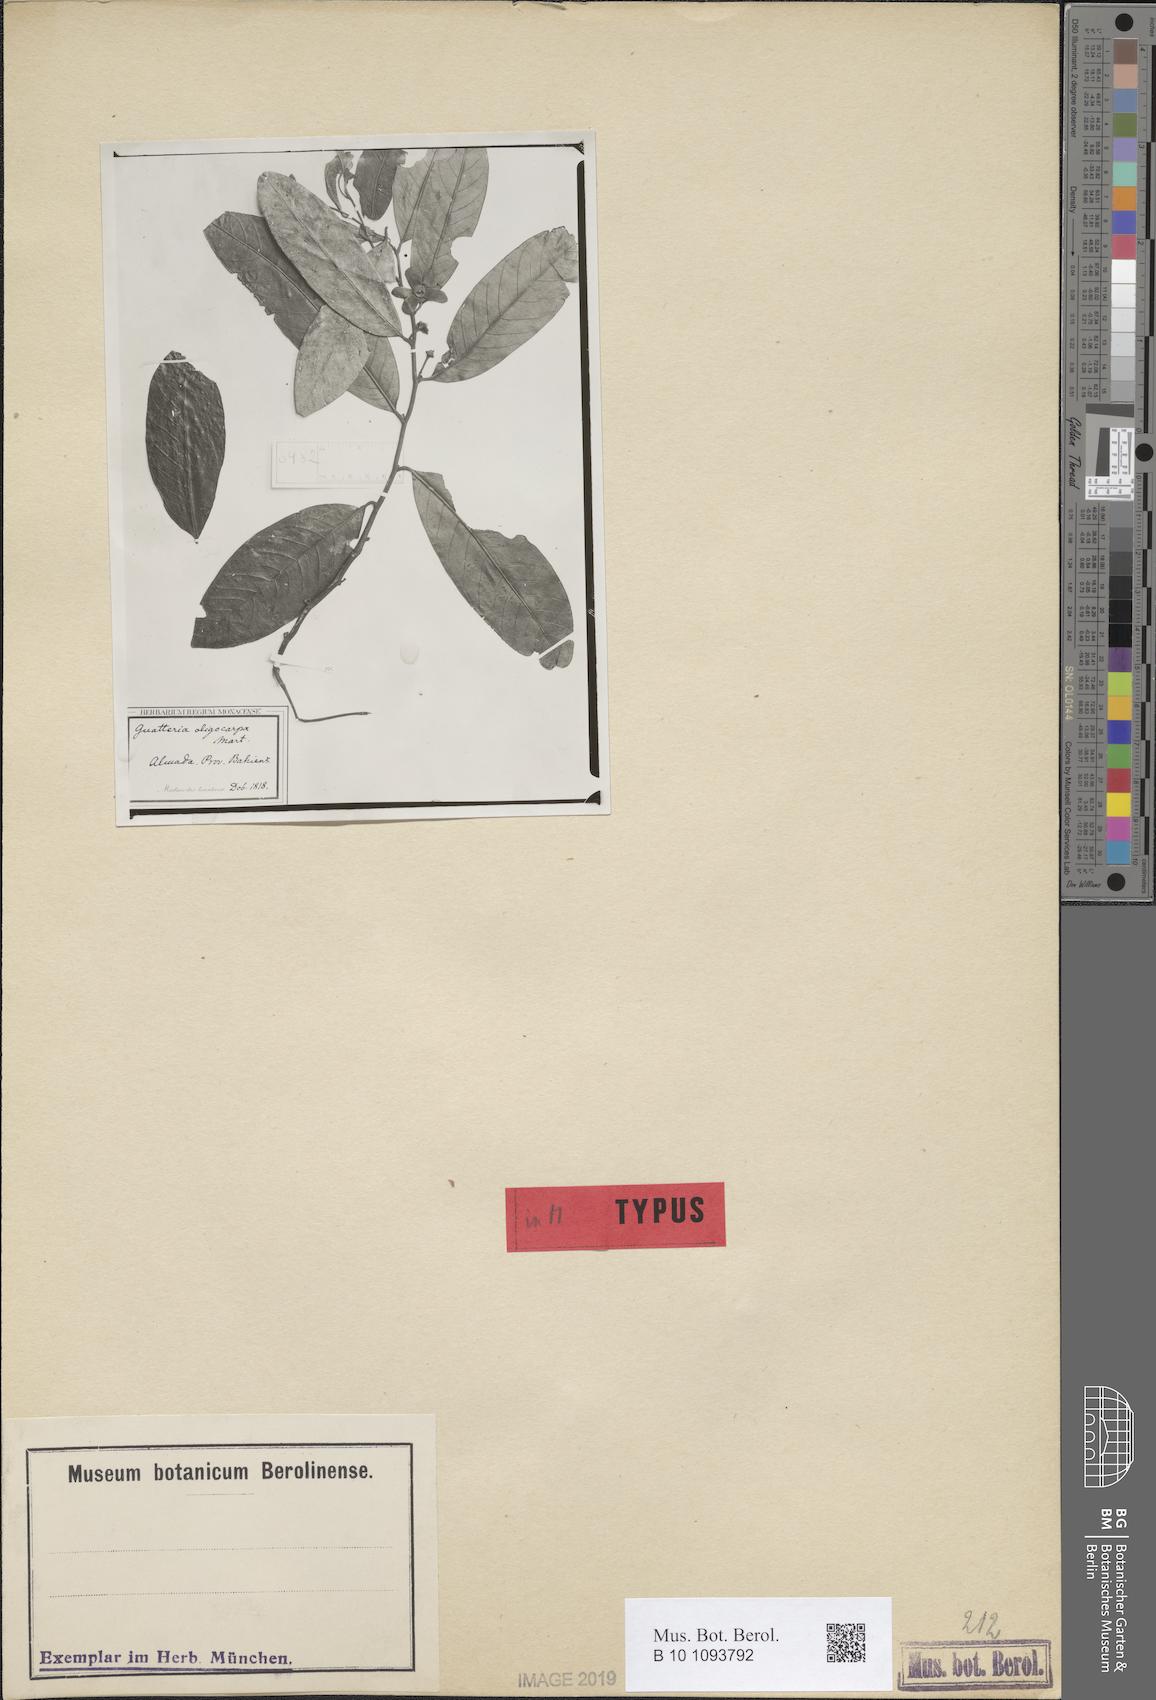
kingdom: Plantae
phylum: Tracheophyta
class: Magnoliopsida
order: Magnoliales
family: Annonaceae
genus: Guatteria
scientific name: Guatteria oligocarpa
